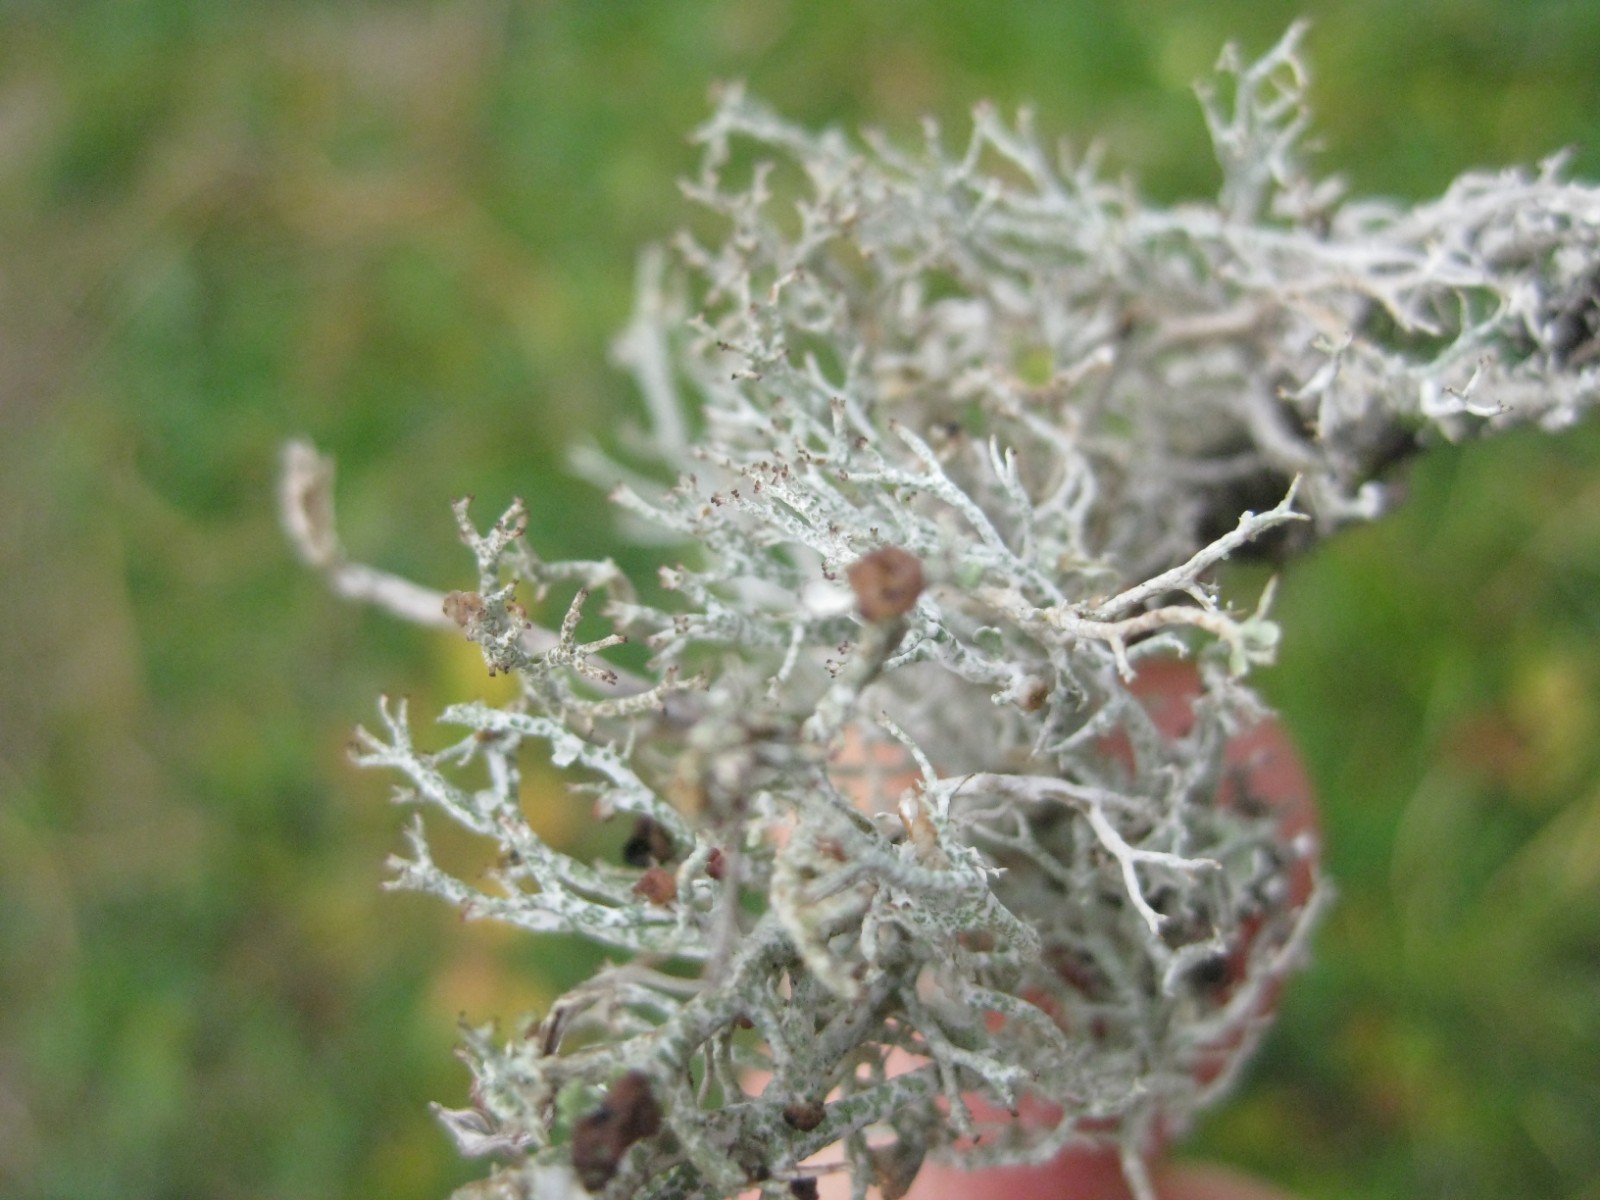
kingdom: Fungi
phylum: Basidiomycota
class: Tremellomycetes
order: Filobasidiales
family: Filobasidiaceae
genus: Zyzygomyces
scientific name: Zyzygomyces bachmannii
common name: rensdyrlav-snyltehjerne
